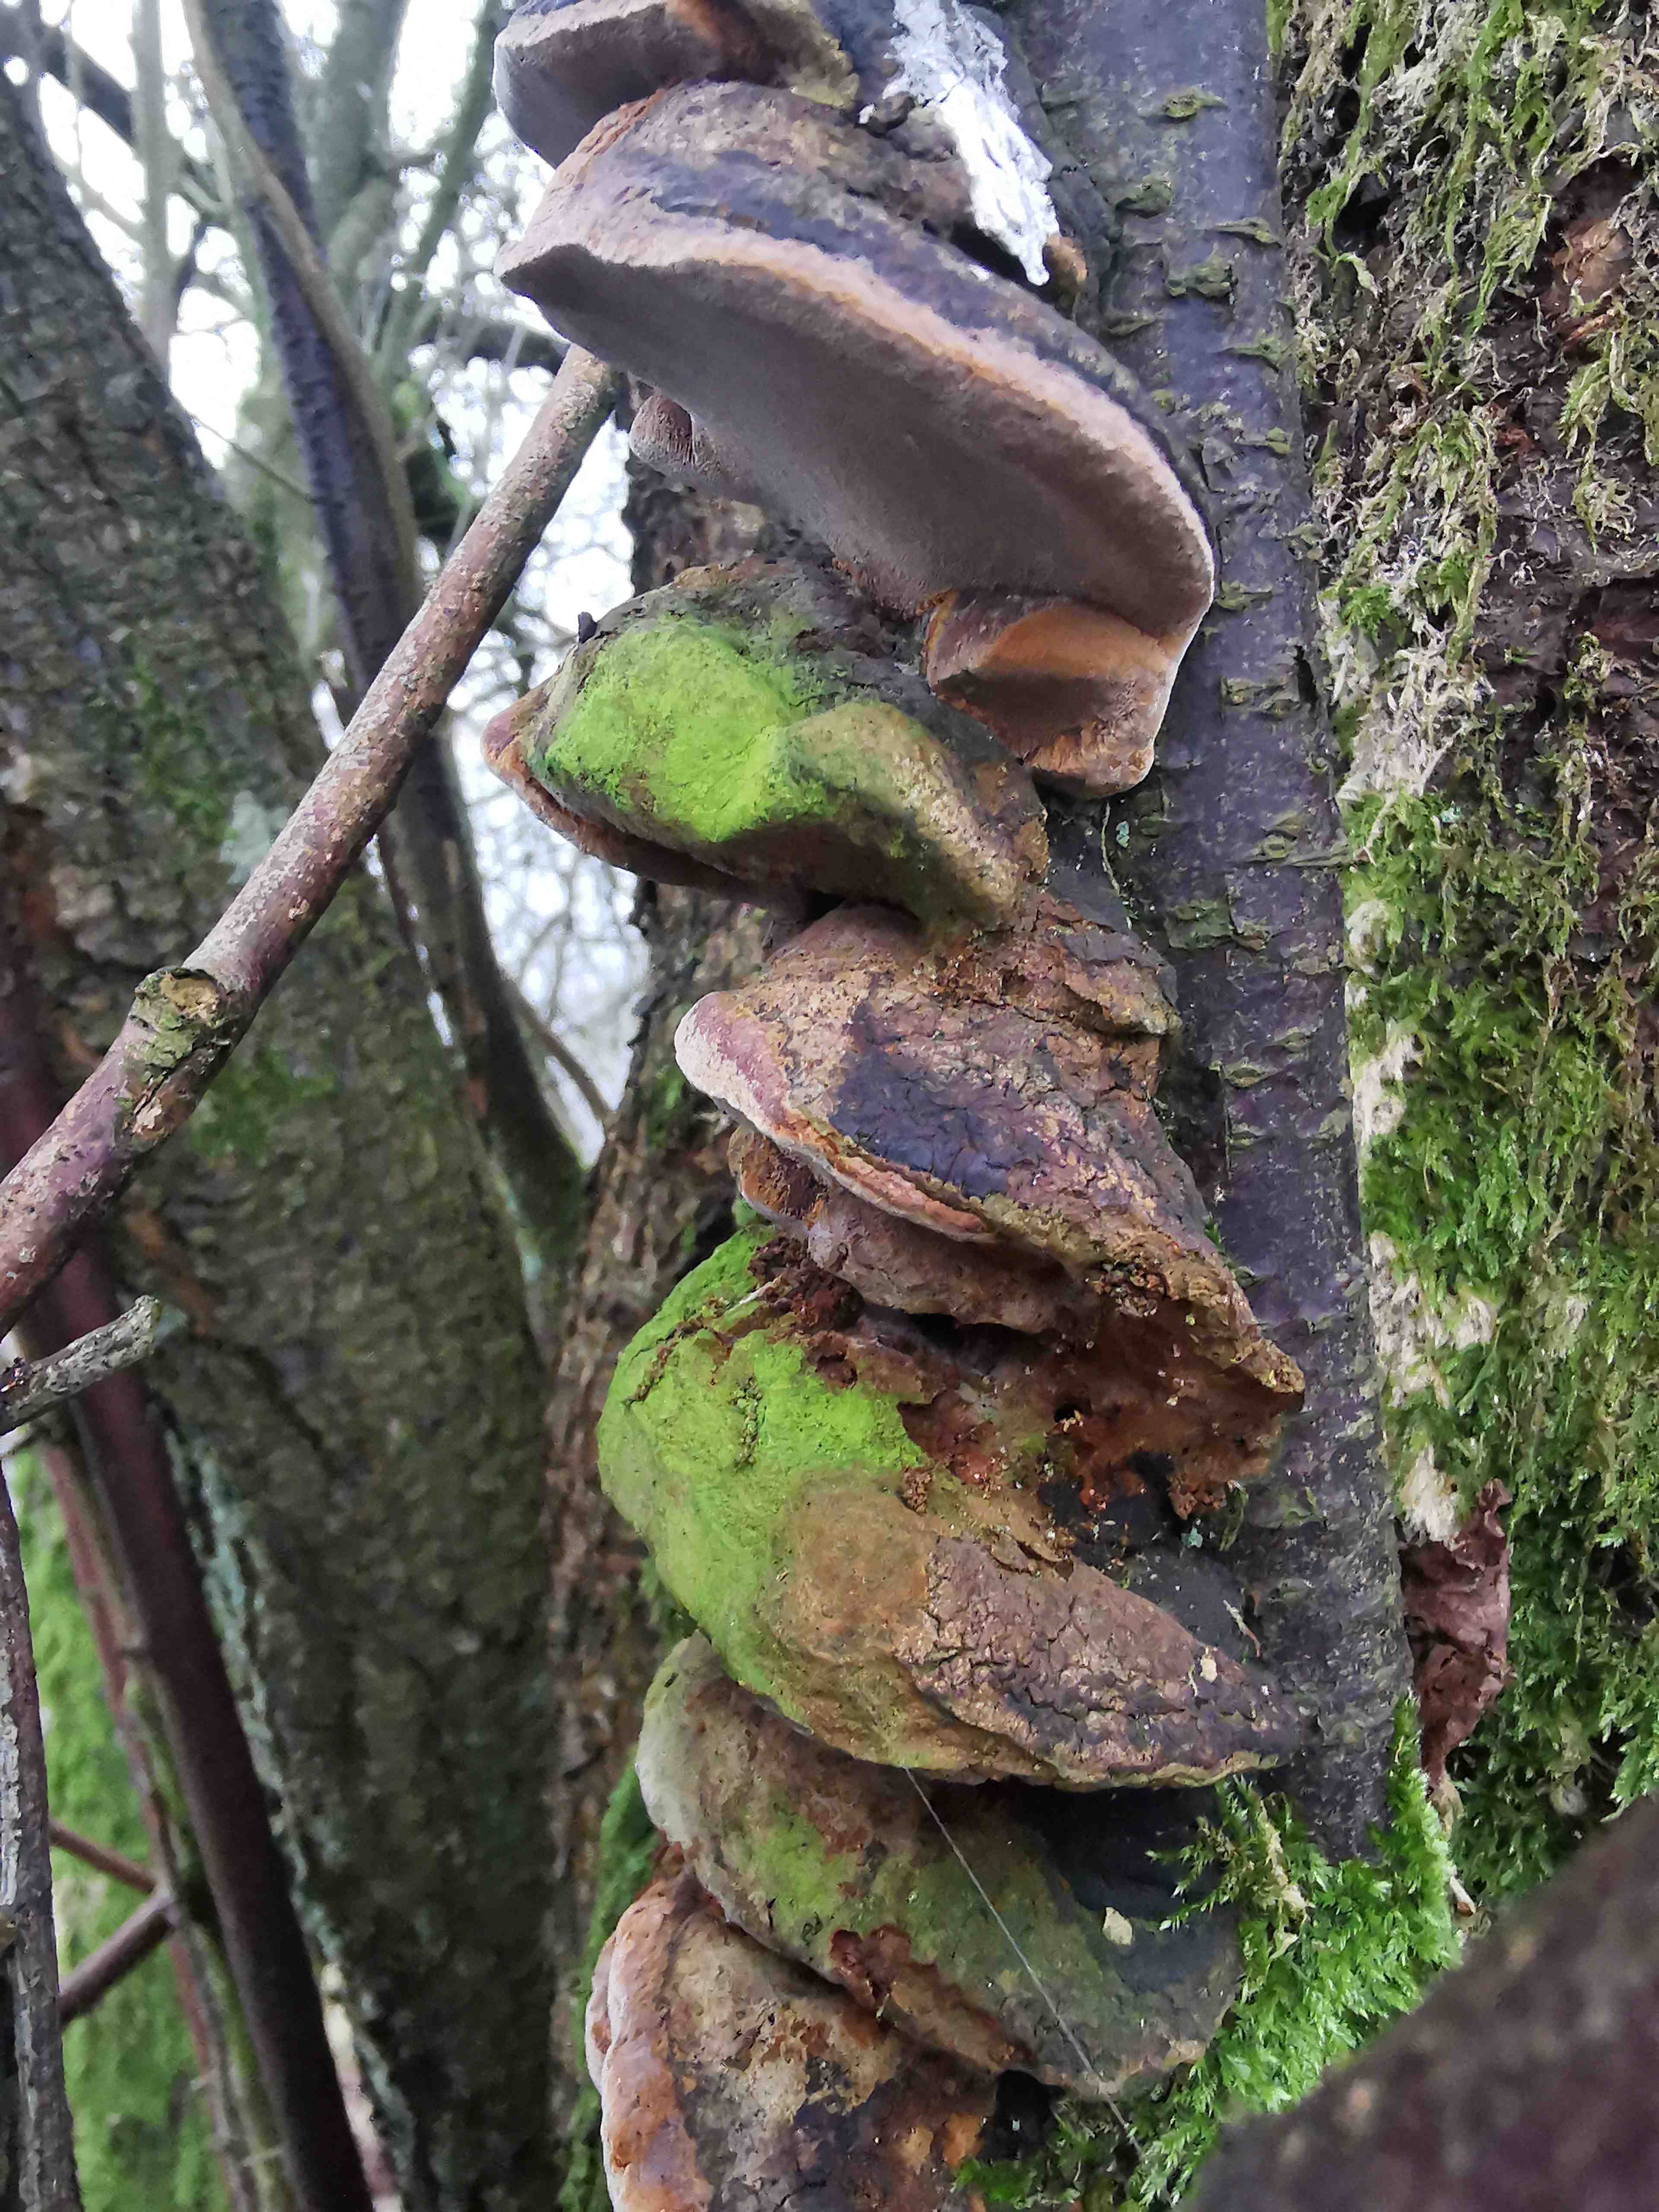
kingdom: Fungi
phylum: Basidiomycota
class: Agaricomycetes
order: Hymenochaetales
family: Hymenochaetaceae
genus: Phellinus
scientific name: Phellinus pomaceus
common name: blomme-ildporesvamp
